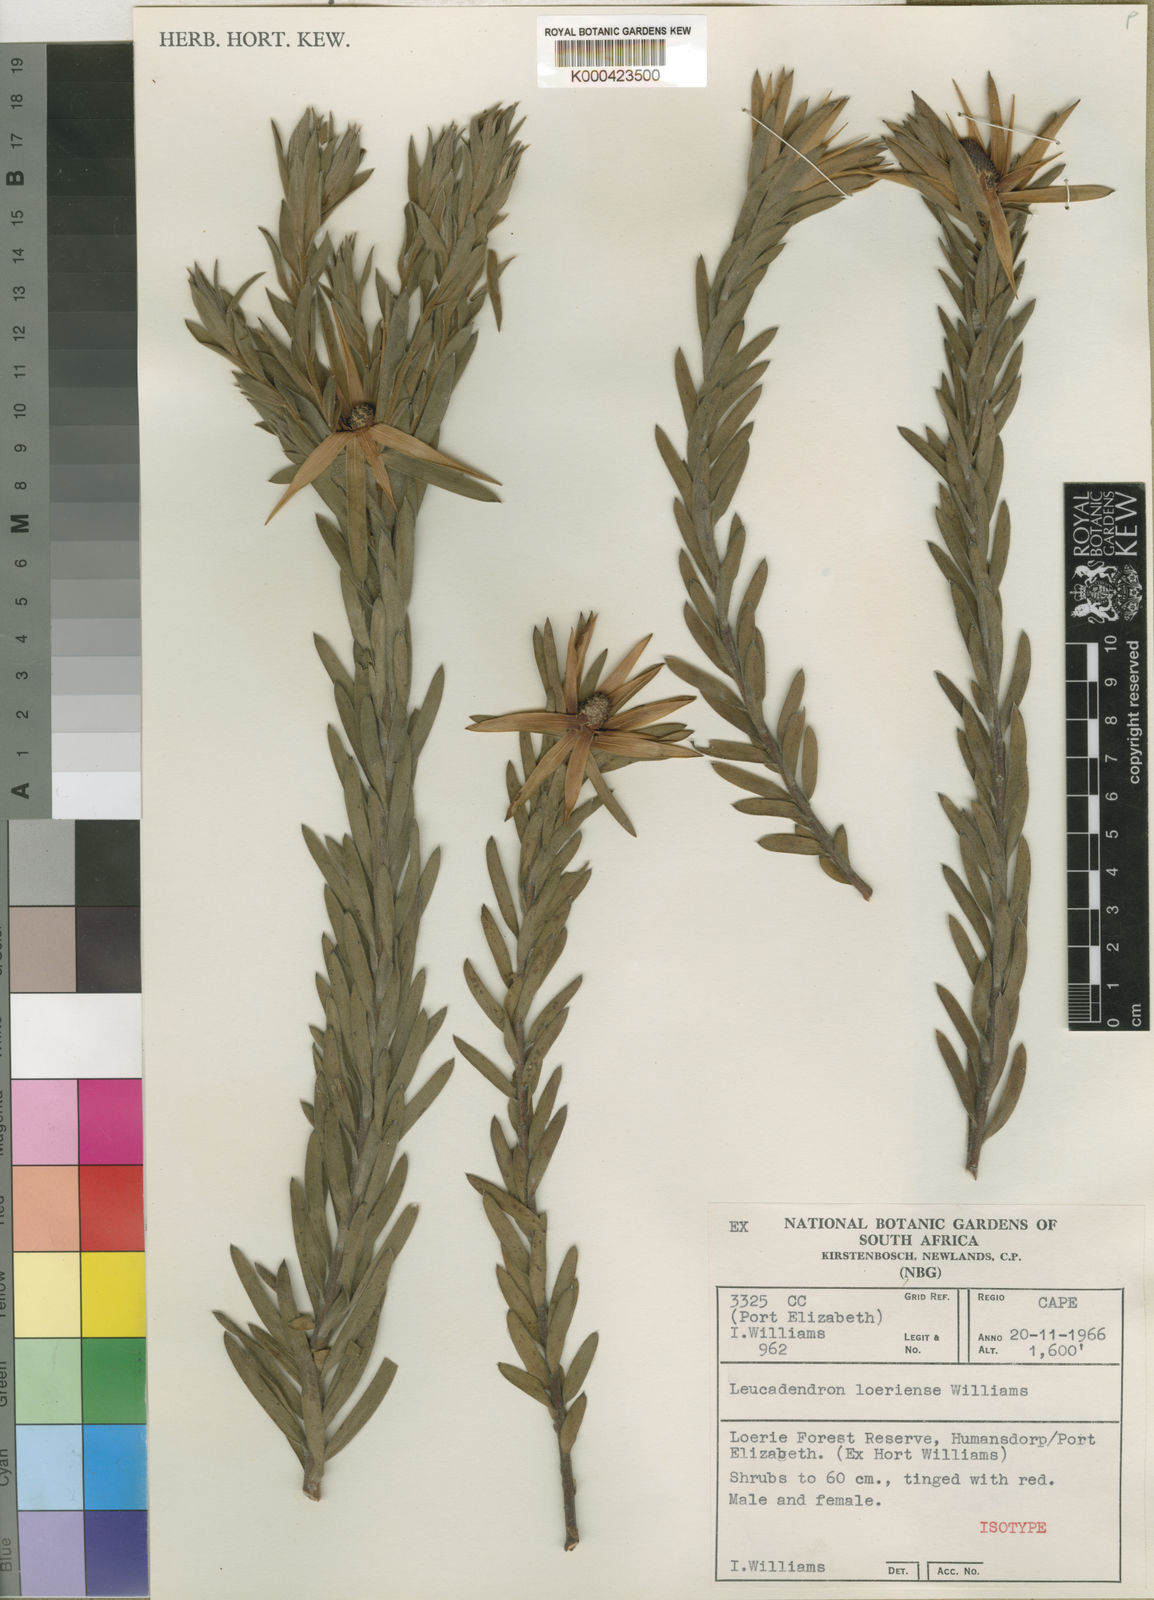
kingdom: Plantae
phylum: Tracheophyta
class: Magnoliopsida
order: Proteales
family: Proteaceae
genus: Leucadendron
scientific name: Leucadendron loeriense
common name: Loerie conebush
